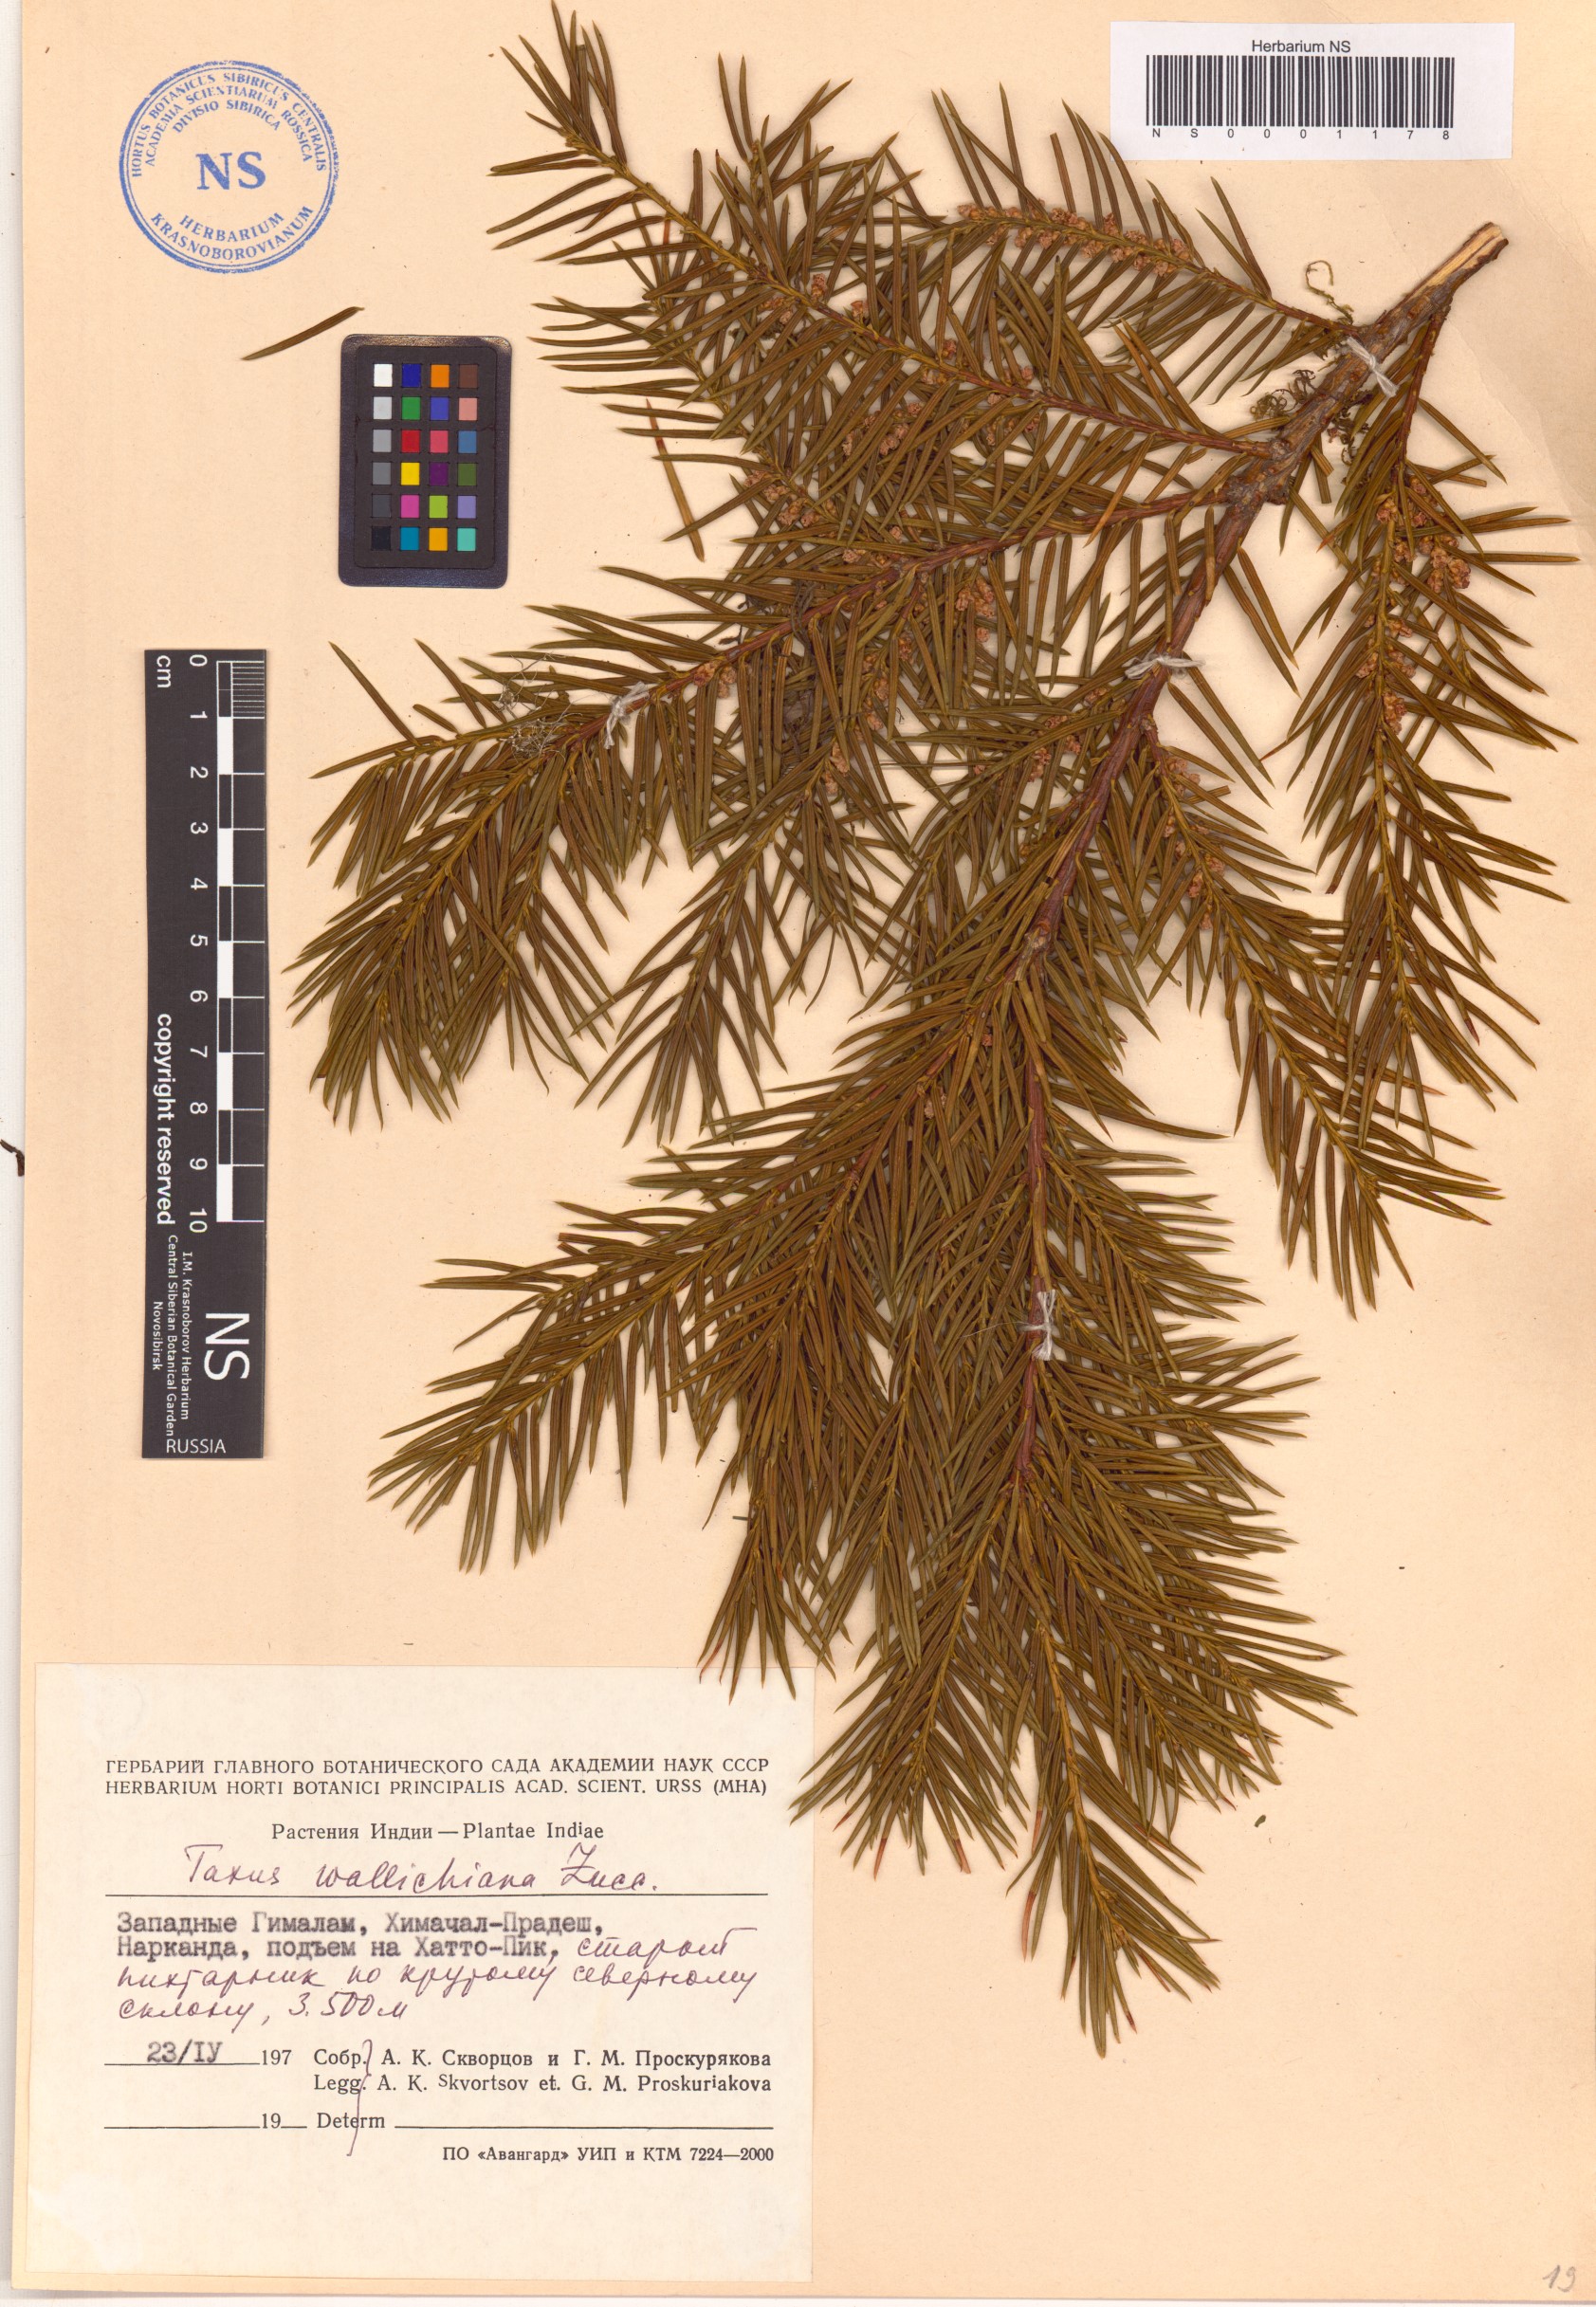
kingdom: Plantae
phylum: Tracheophyta
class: Pinopsida
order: Pinales
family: Taxaceae
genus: Taxus
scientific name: Taxus wallichiana
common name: Himalayan yew
